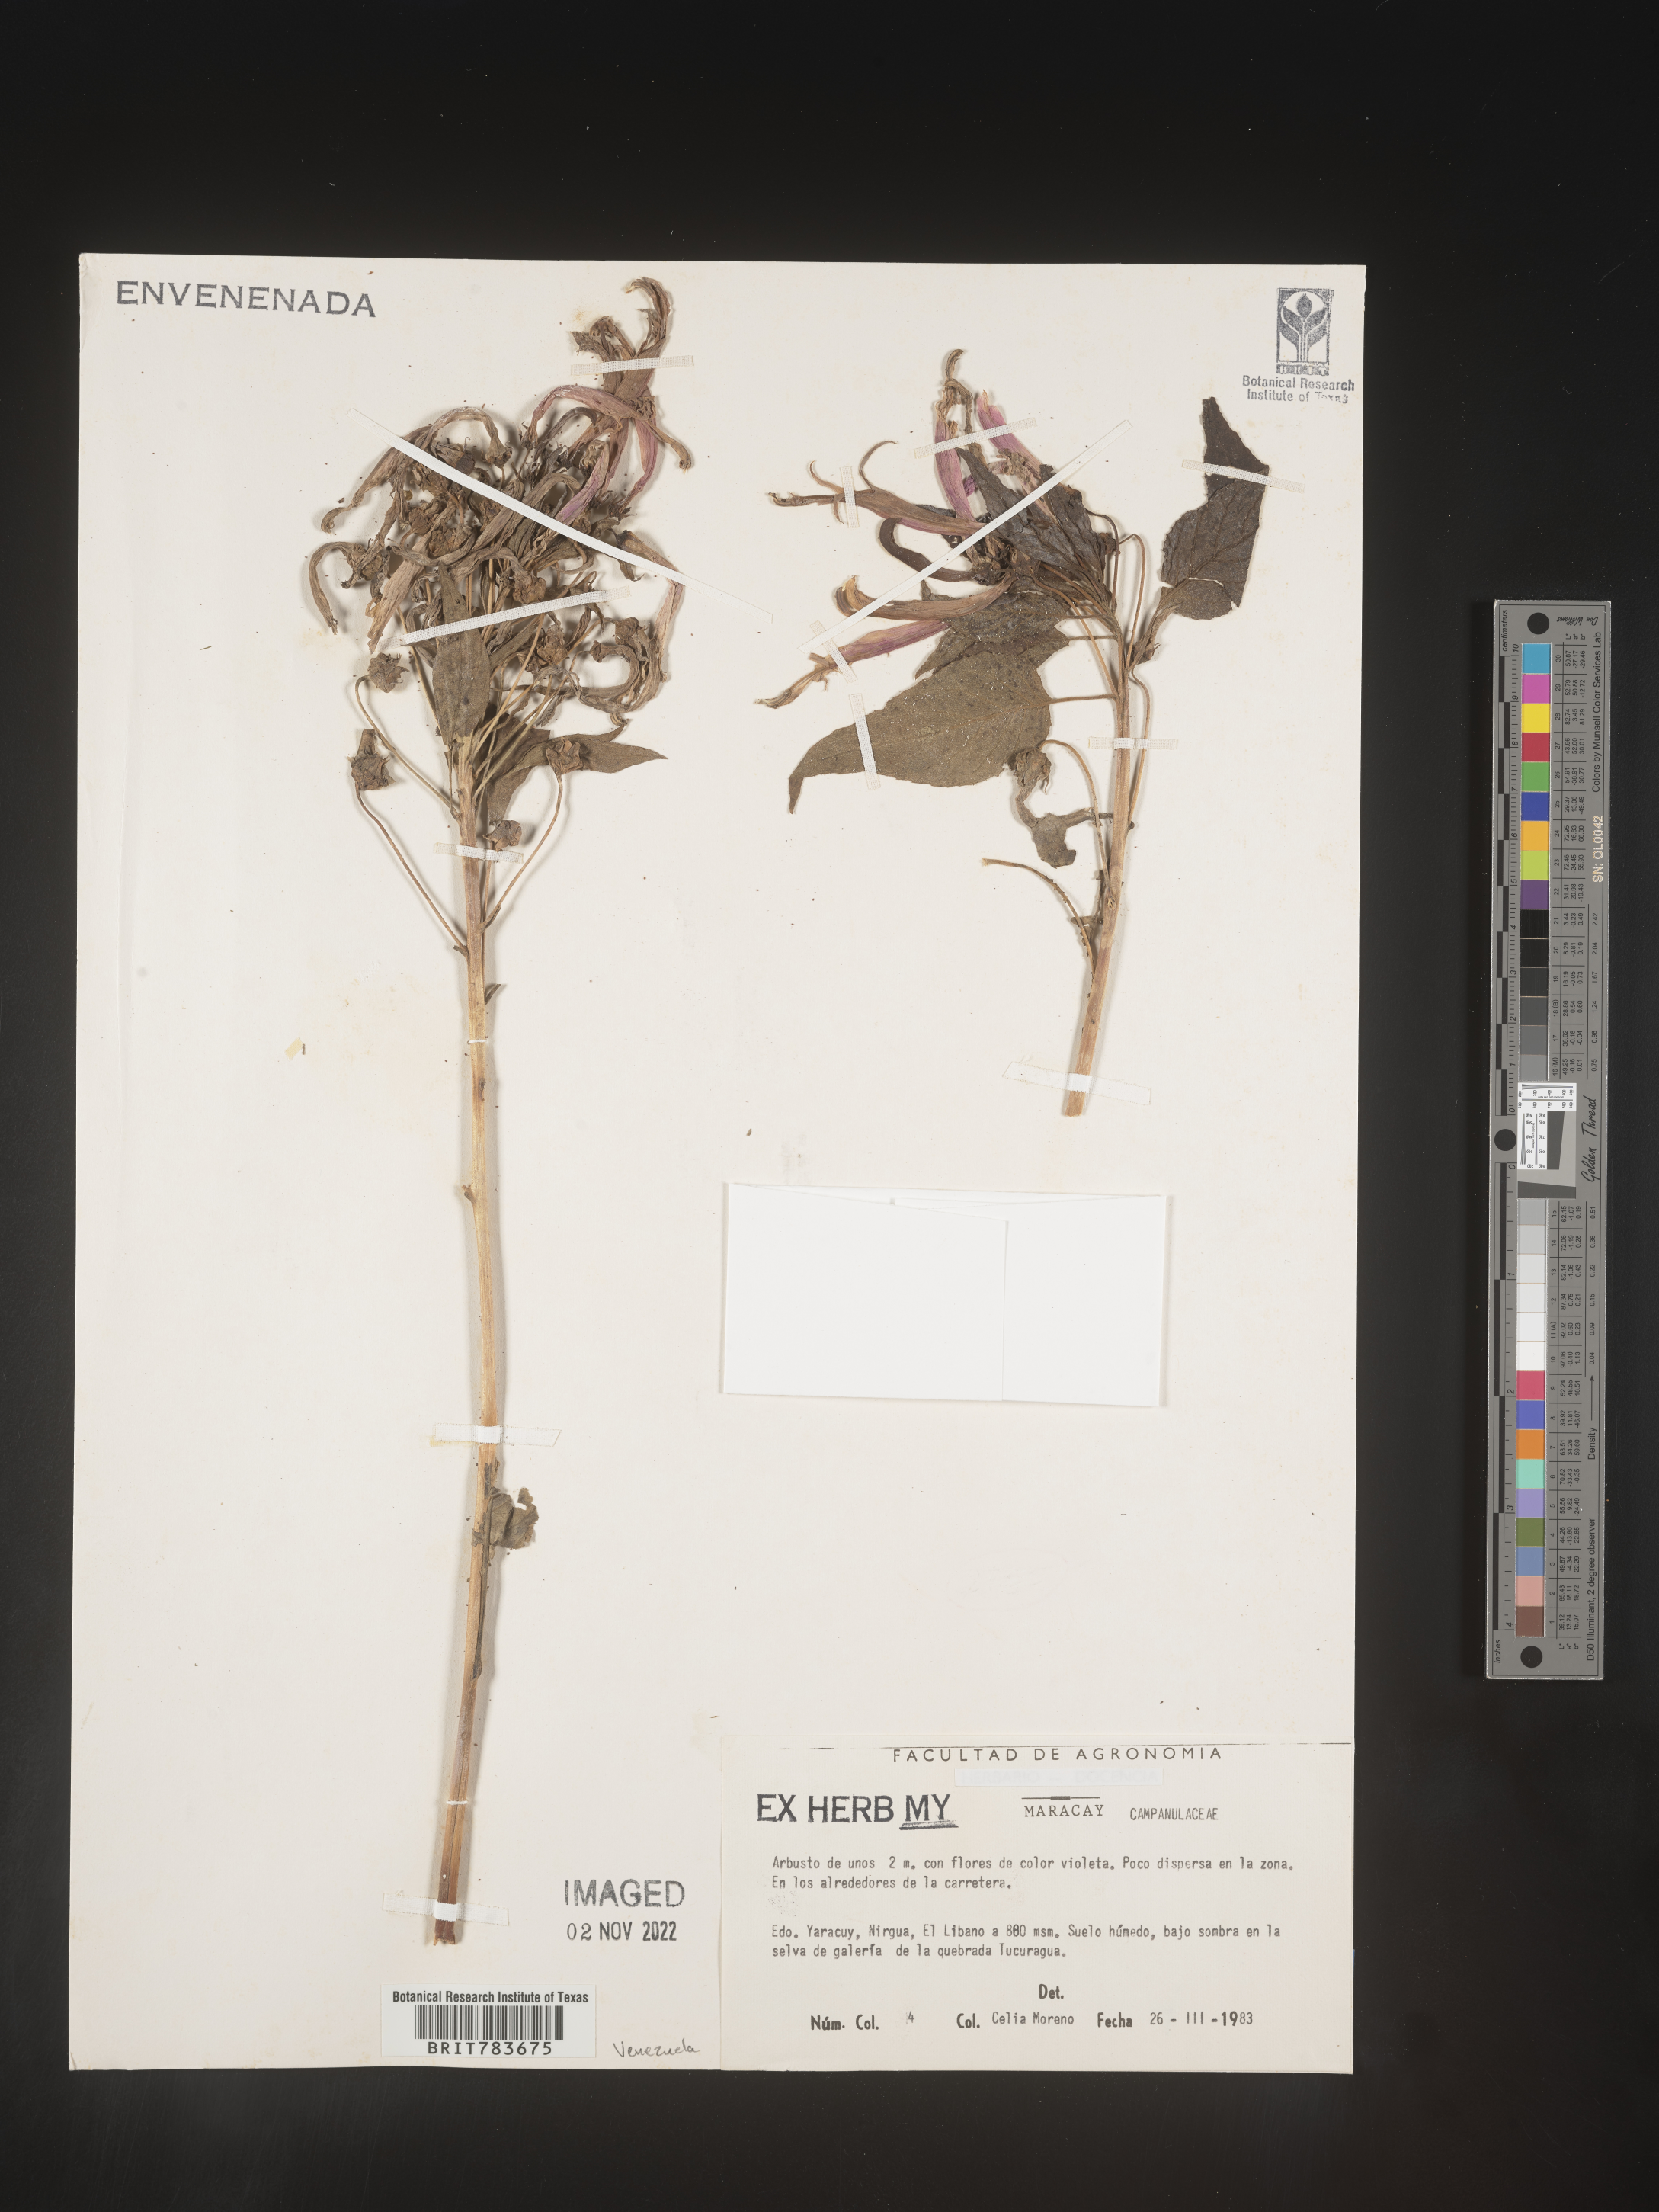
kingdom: Plantae
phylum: Tracheophyta
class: Magnoliopsida
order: Asterales
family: Campanulaceae
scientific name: Campanulaceae
